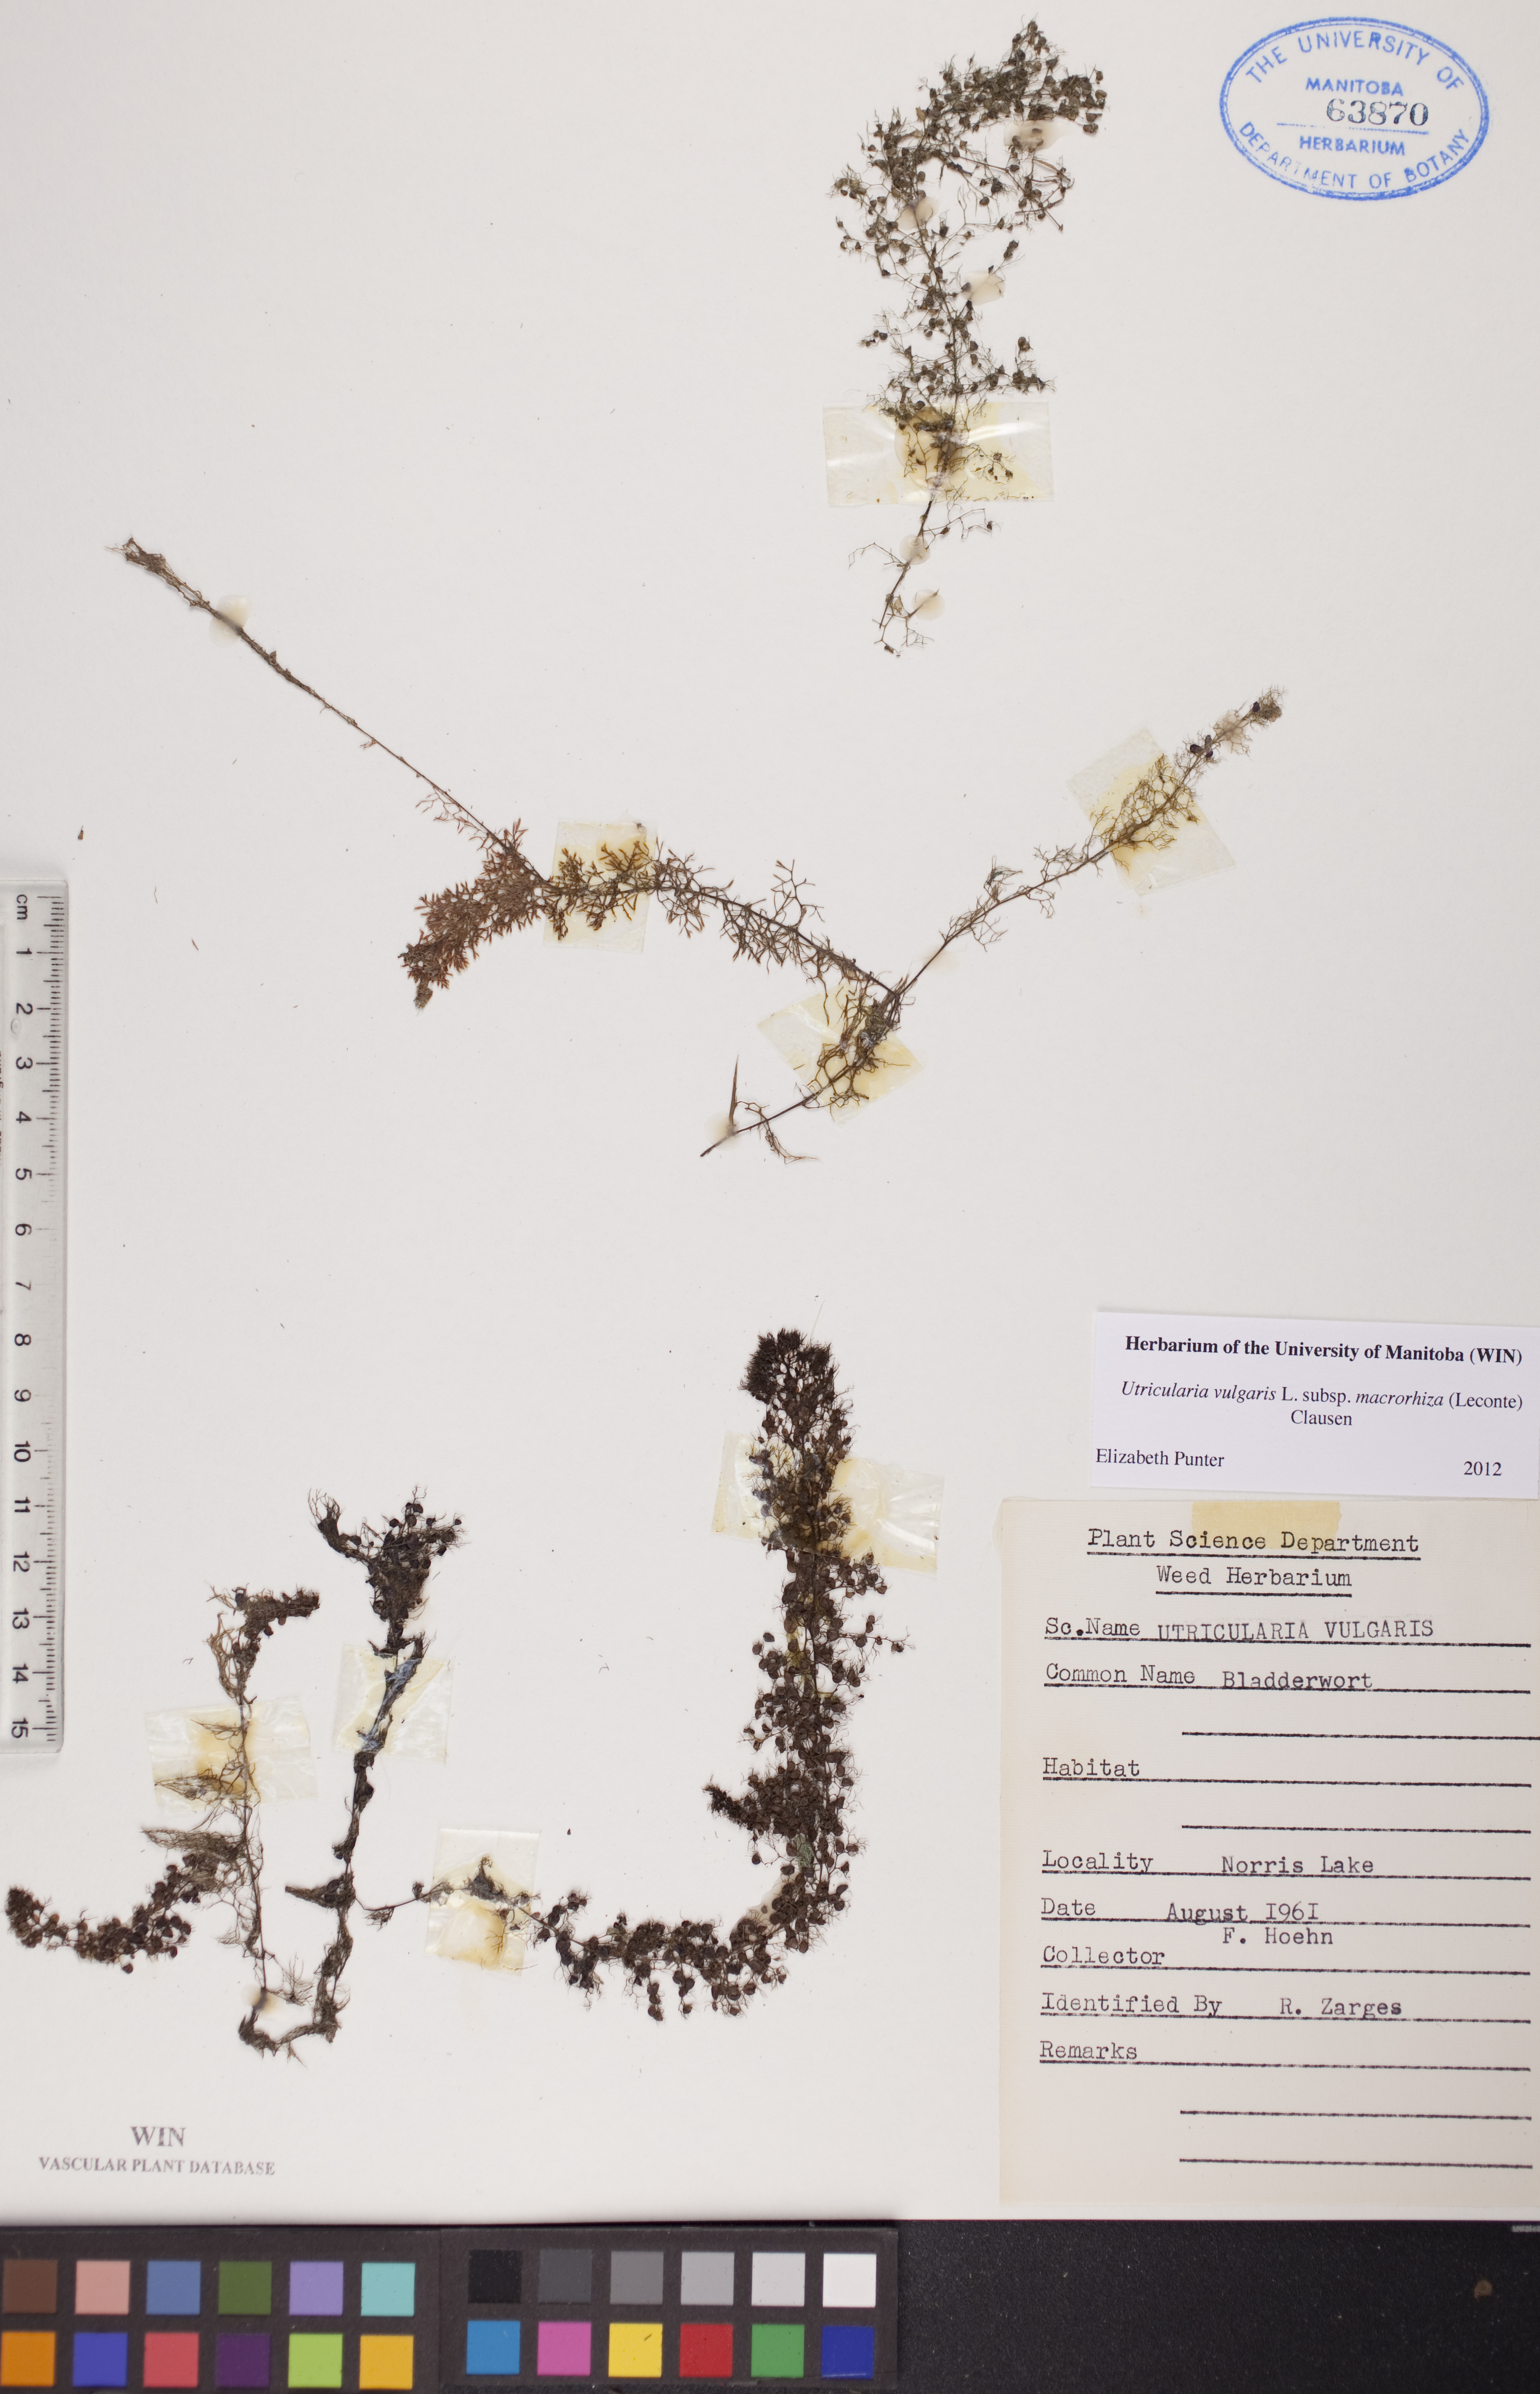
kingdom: Plantae
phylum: Tracheophyta
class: Magnoliopsida
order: Lamiales
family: Lentibulariaceae
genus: Utricularia
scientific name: Utricularia macrorhiza
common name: Common bladderwort
